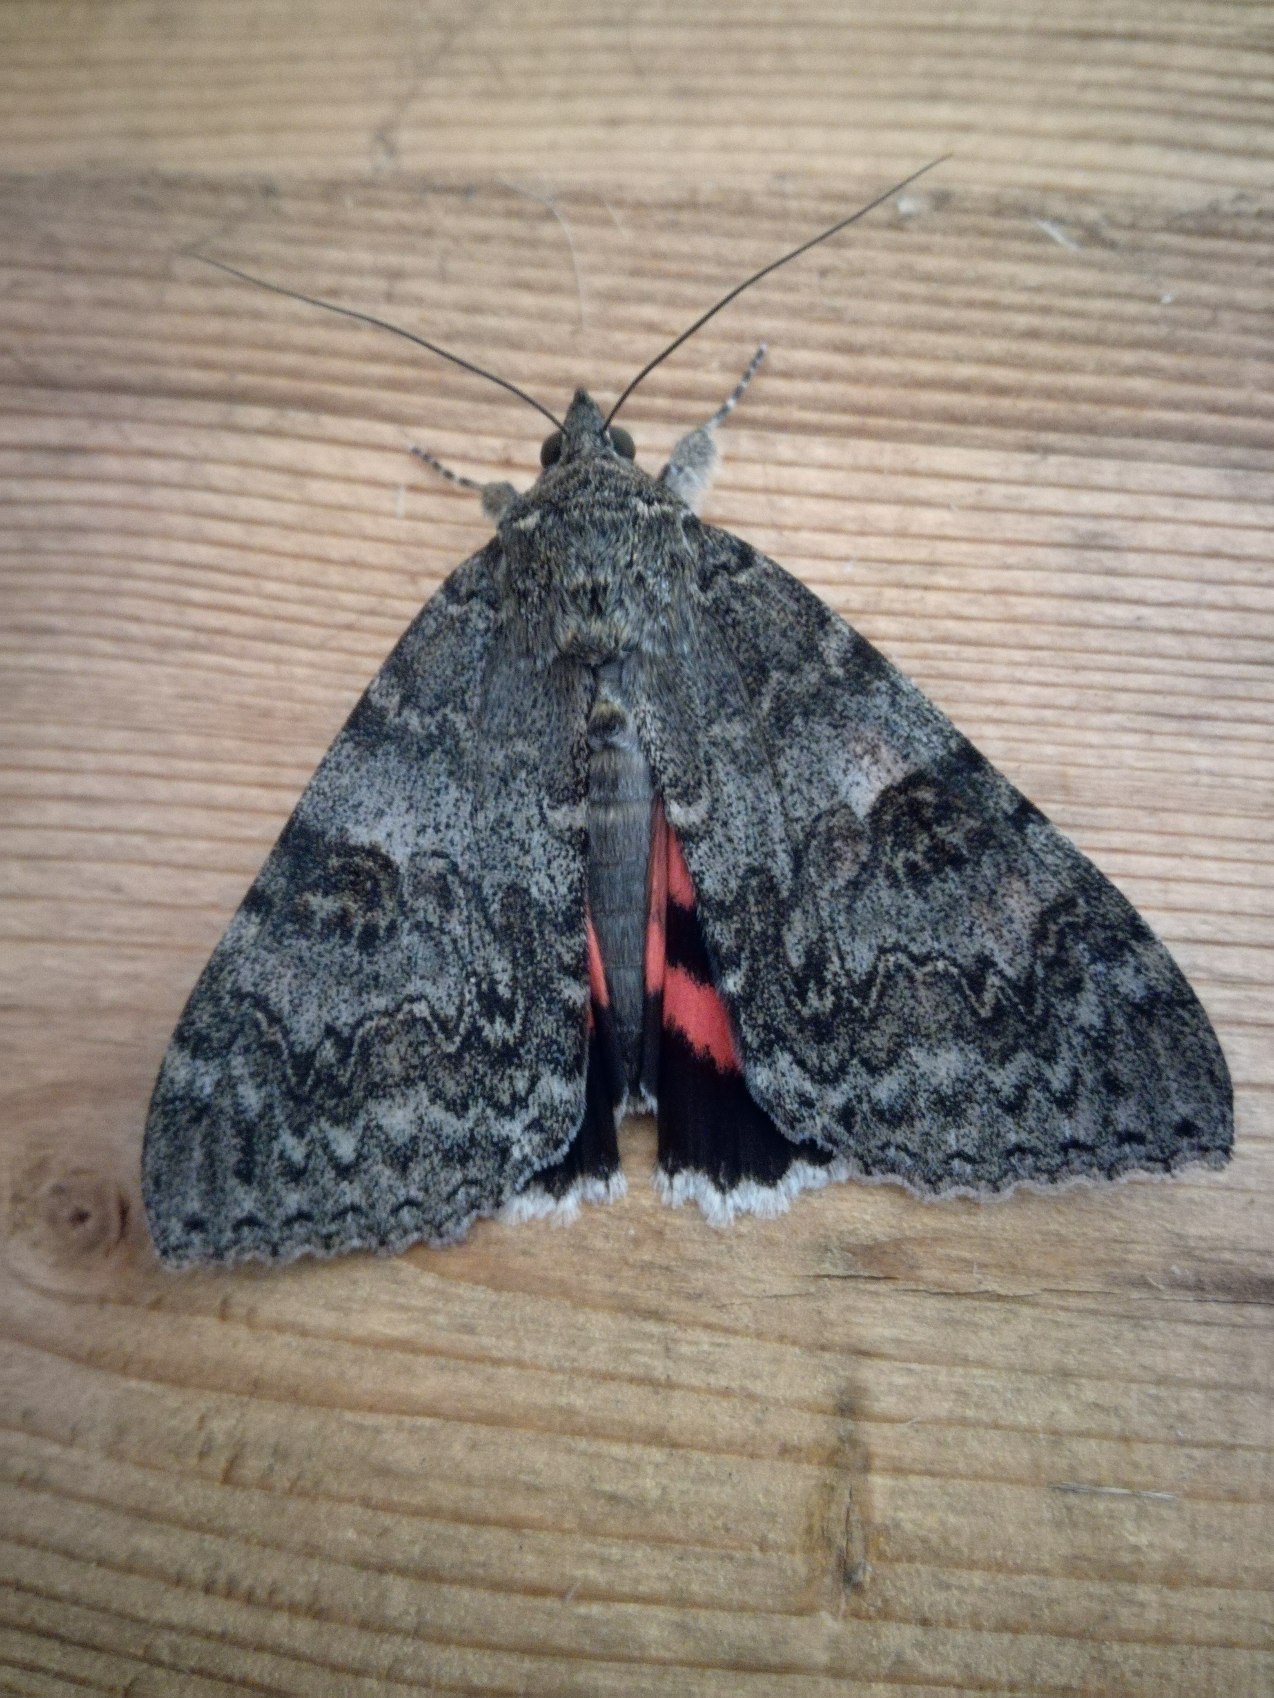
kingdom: Animalia
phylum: Arthropoda
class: Insecta
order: Lepidoptera
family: Erebidae
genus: Catocala
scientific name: Catocala nupta
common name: Rødt ordensbånd
